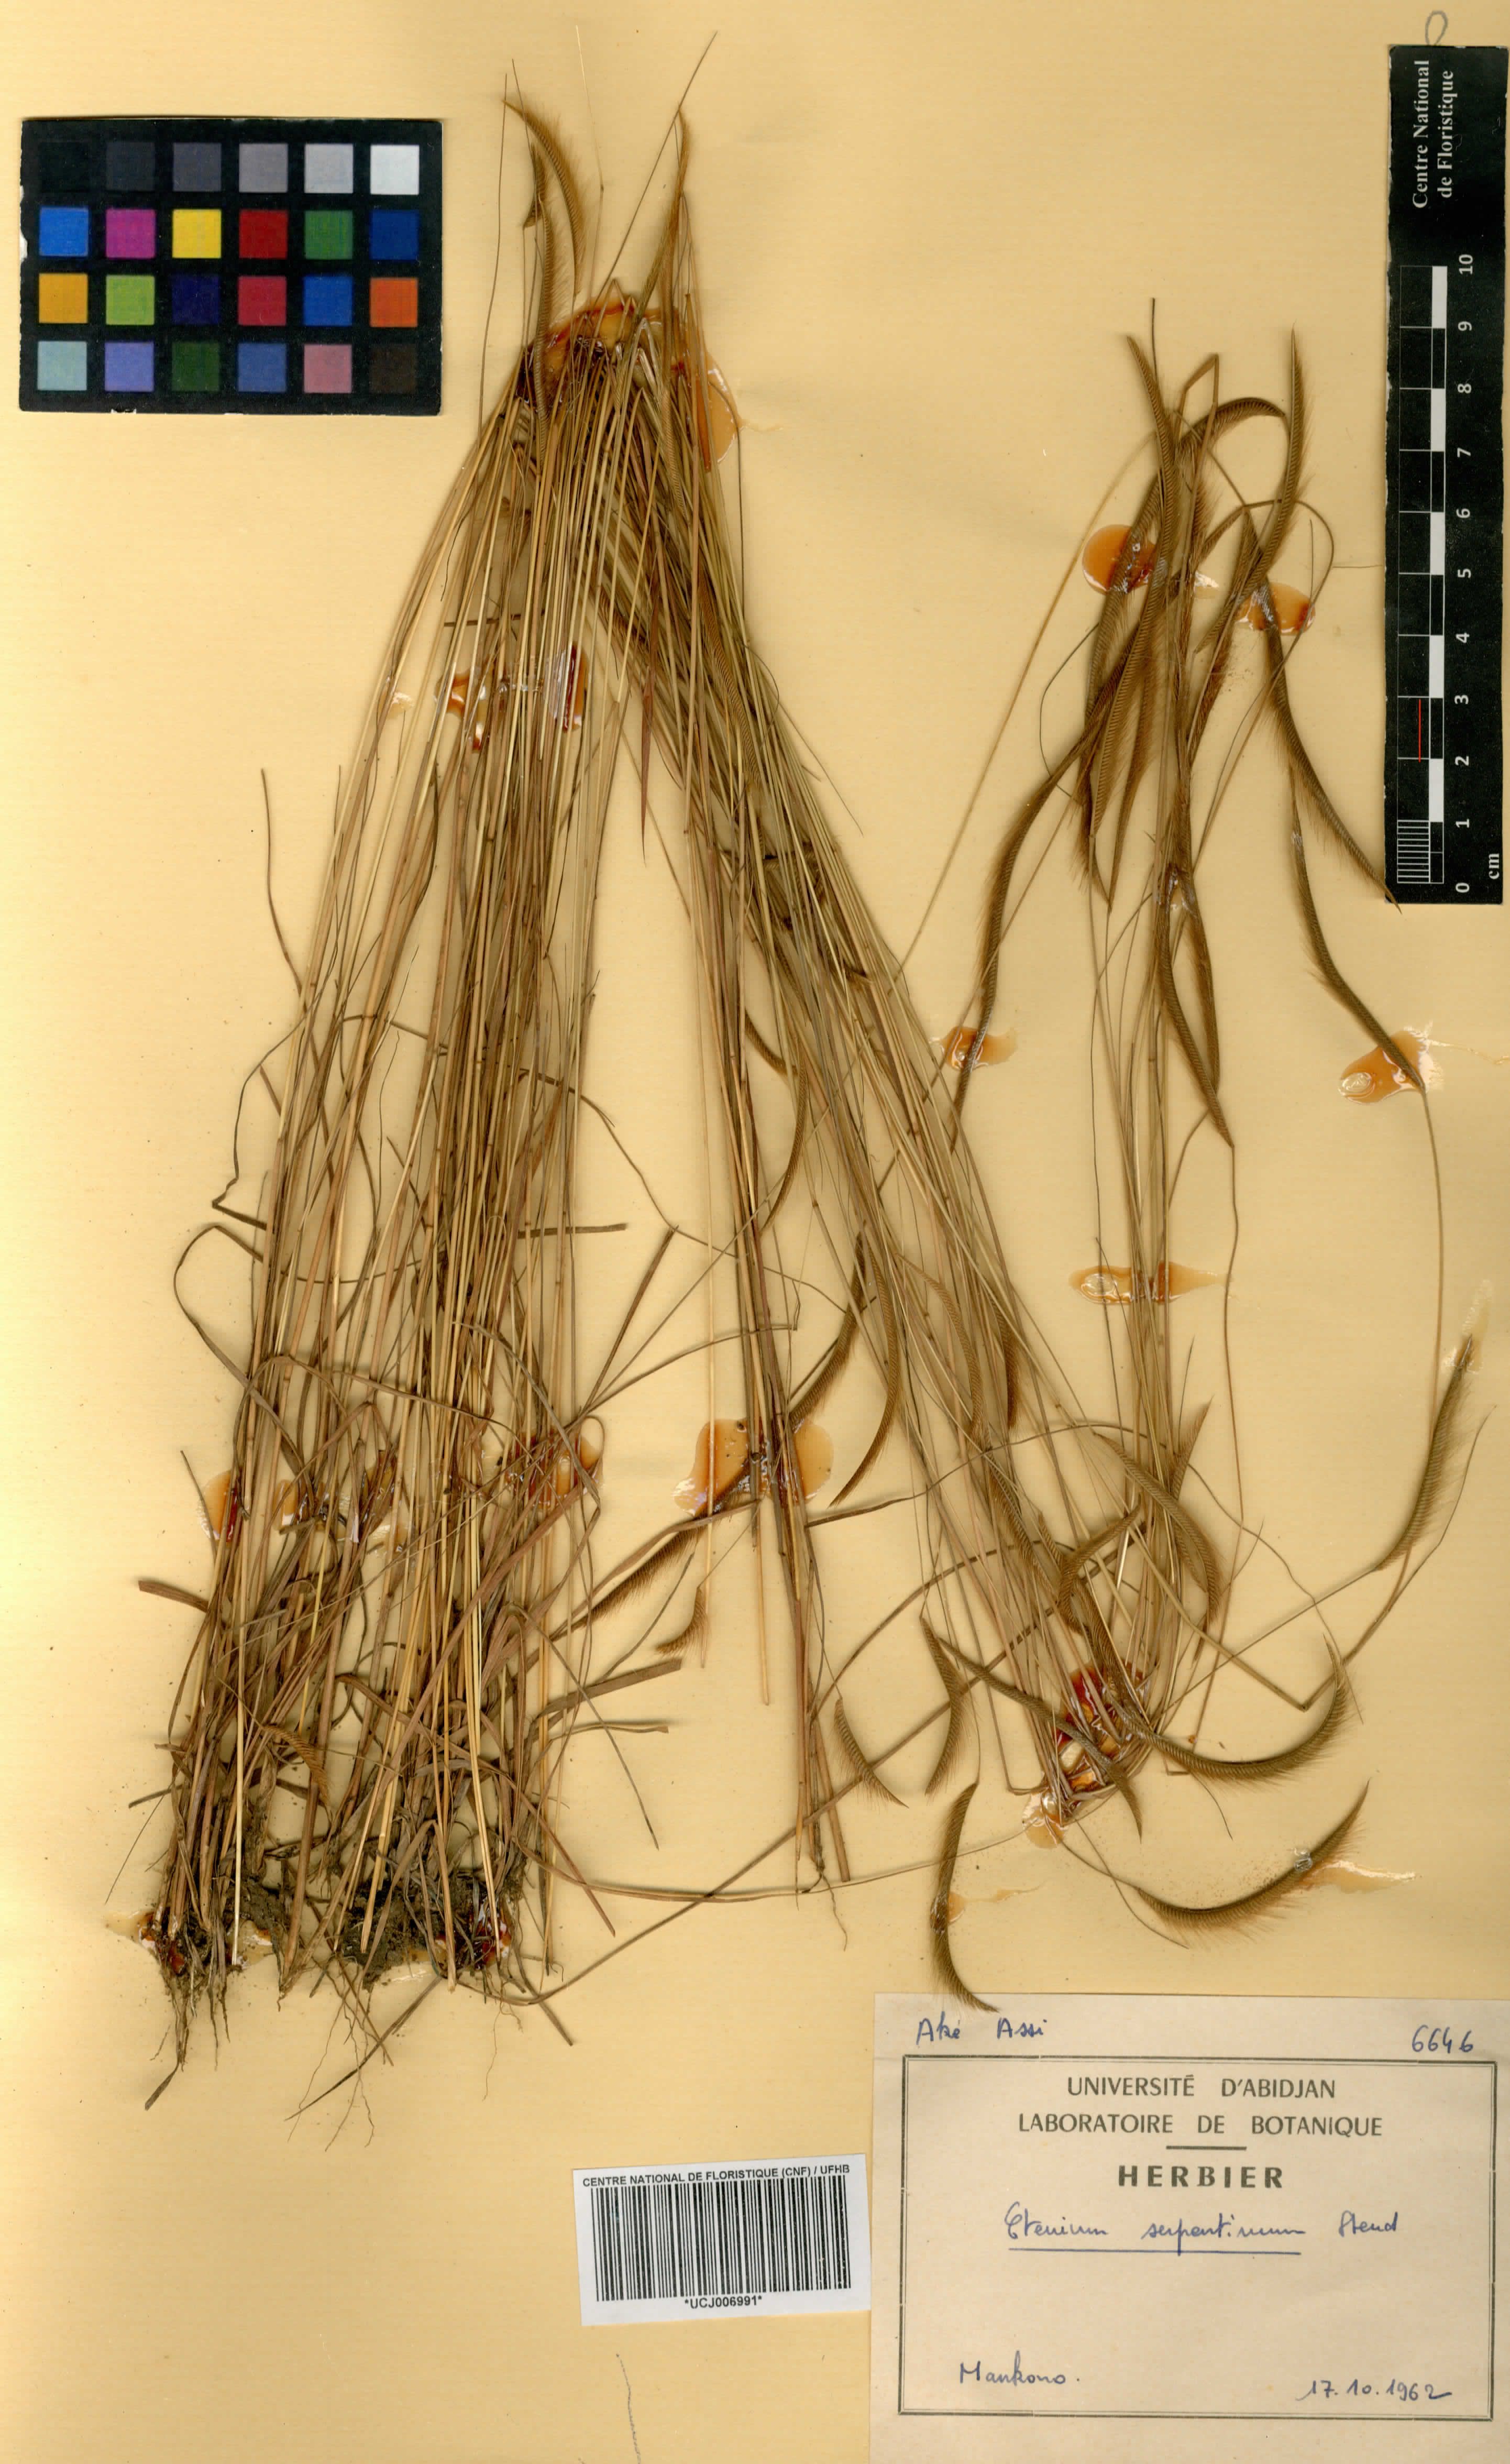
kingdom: Plantae
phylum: Tracheophyta
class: Liliopsida
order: Poales
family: Poaceae
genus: Ctenium
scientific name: Ctenium elegans
